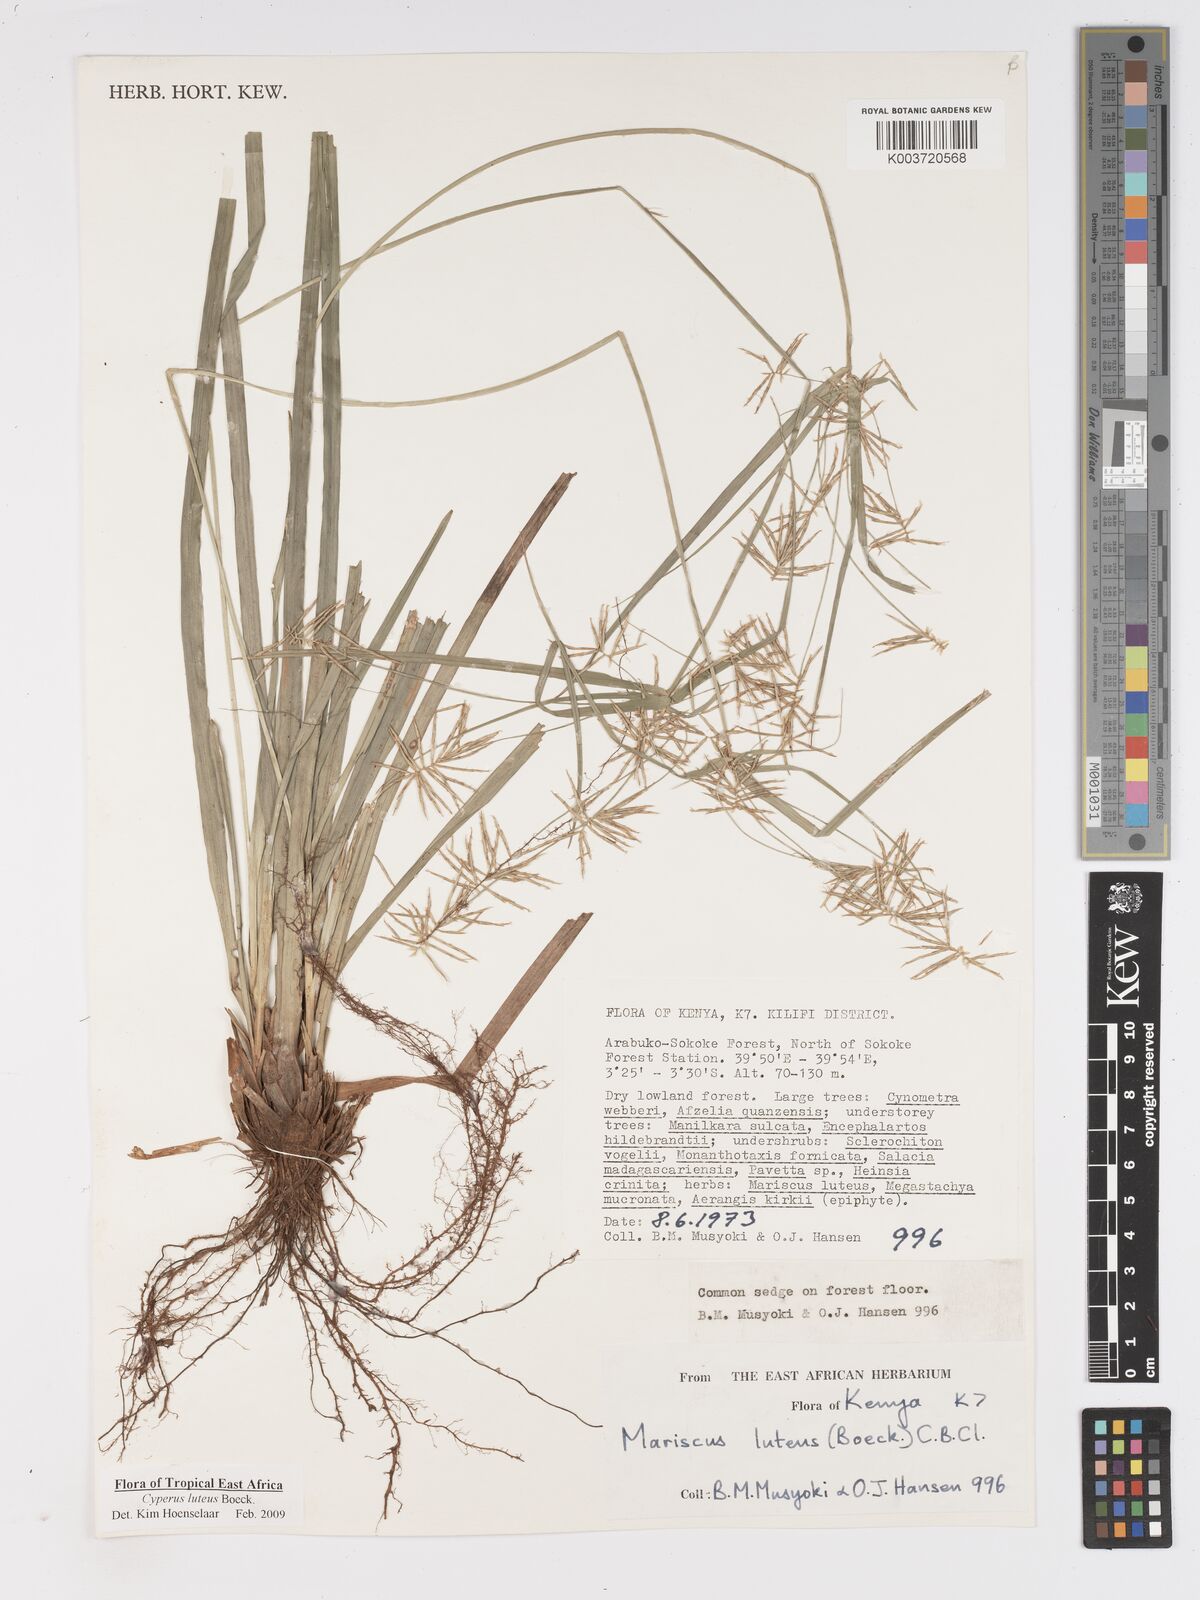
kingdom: Plantae
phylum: Tracheophyta
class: Liliopsida
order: Poales
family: Cyperaceae
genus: Cyperus
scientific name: Cyperus luteus
